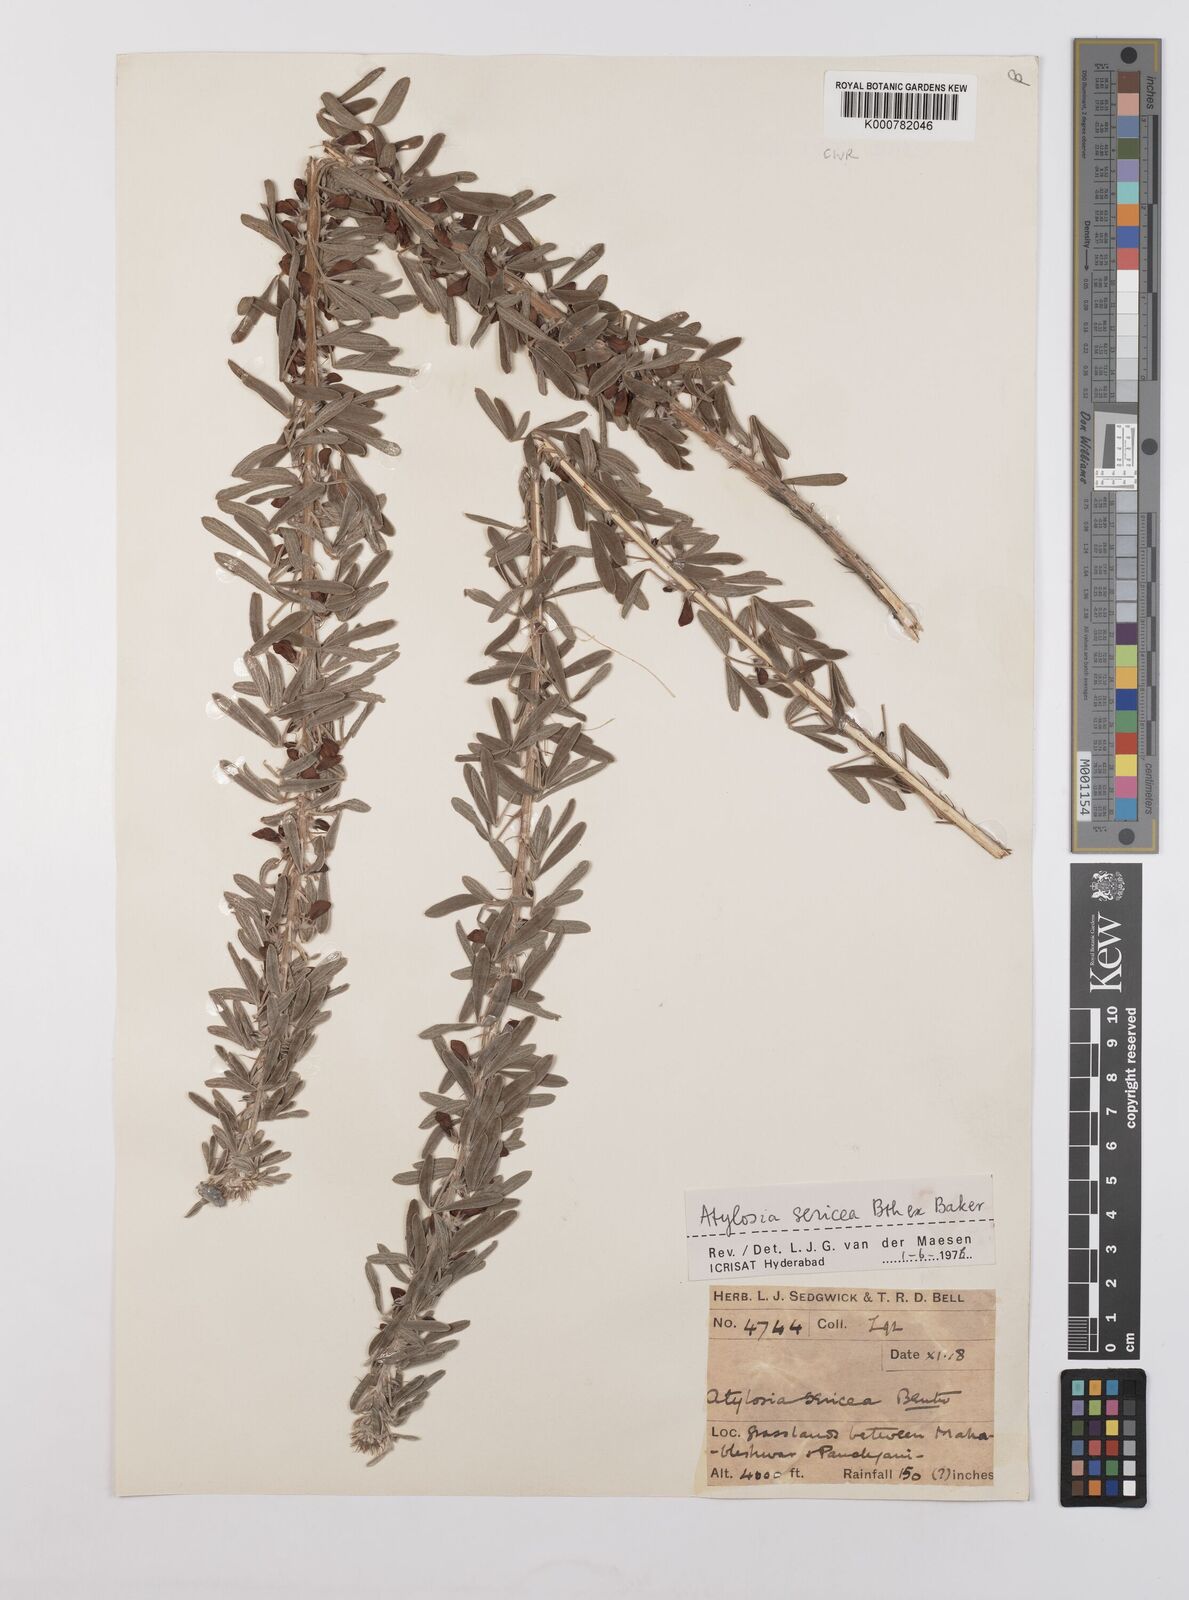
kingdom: Plantae
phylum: Tracheophyta
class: Magnoliopsida
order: Fabales
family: Fabaceae
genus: Cajanus
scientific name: Cajanus sericeus
